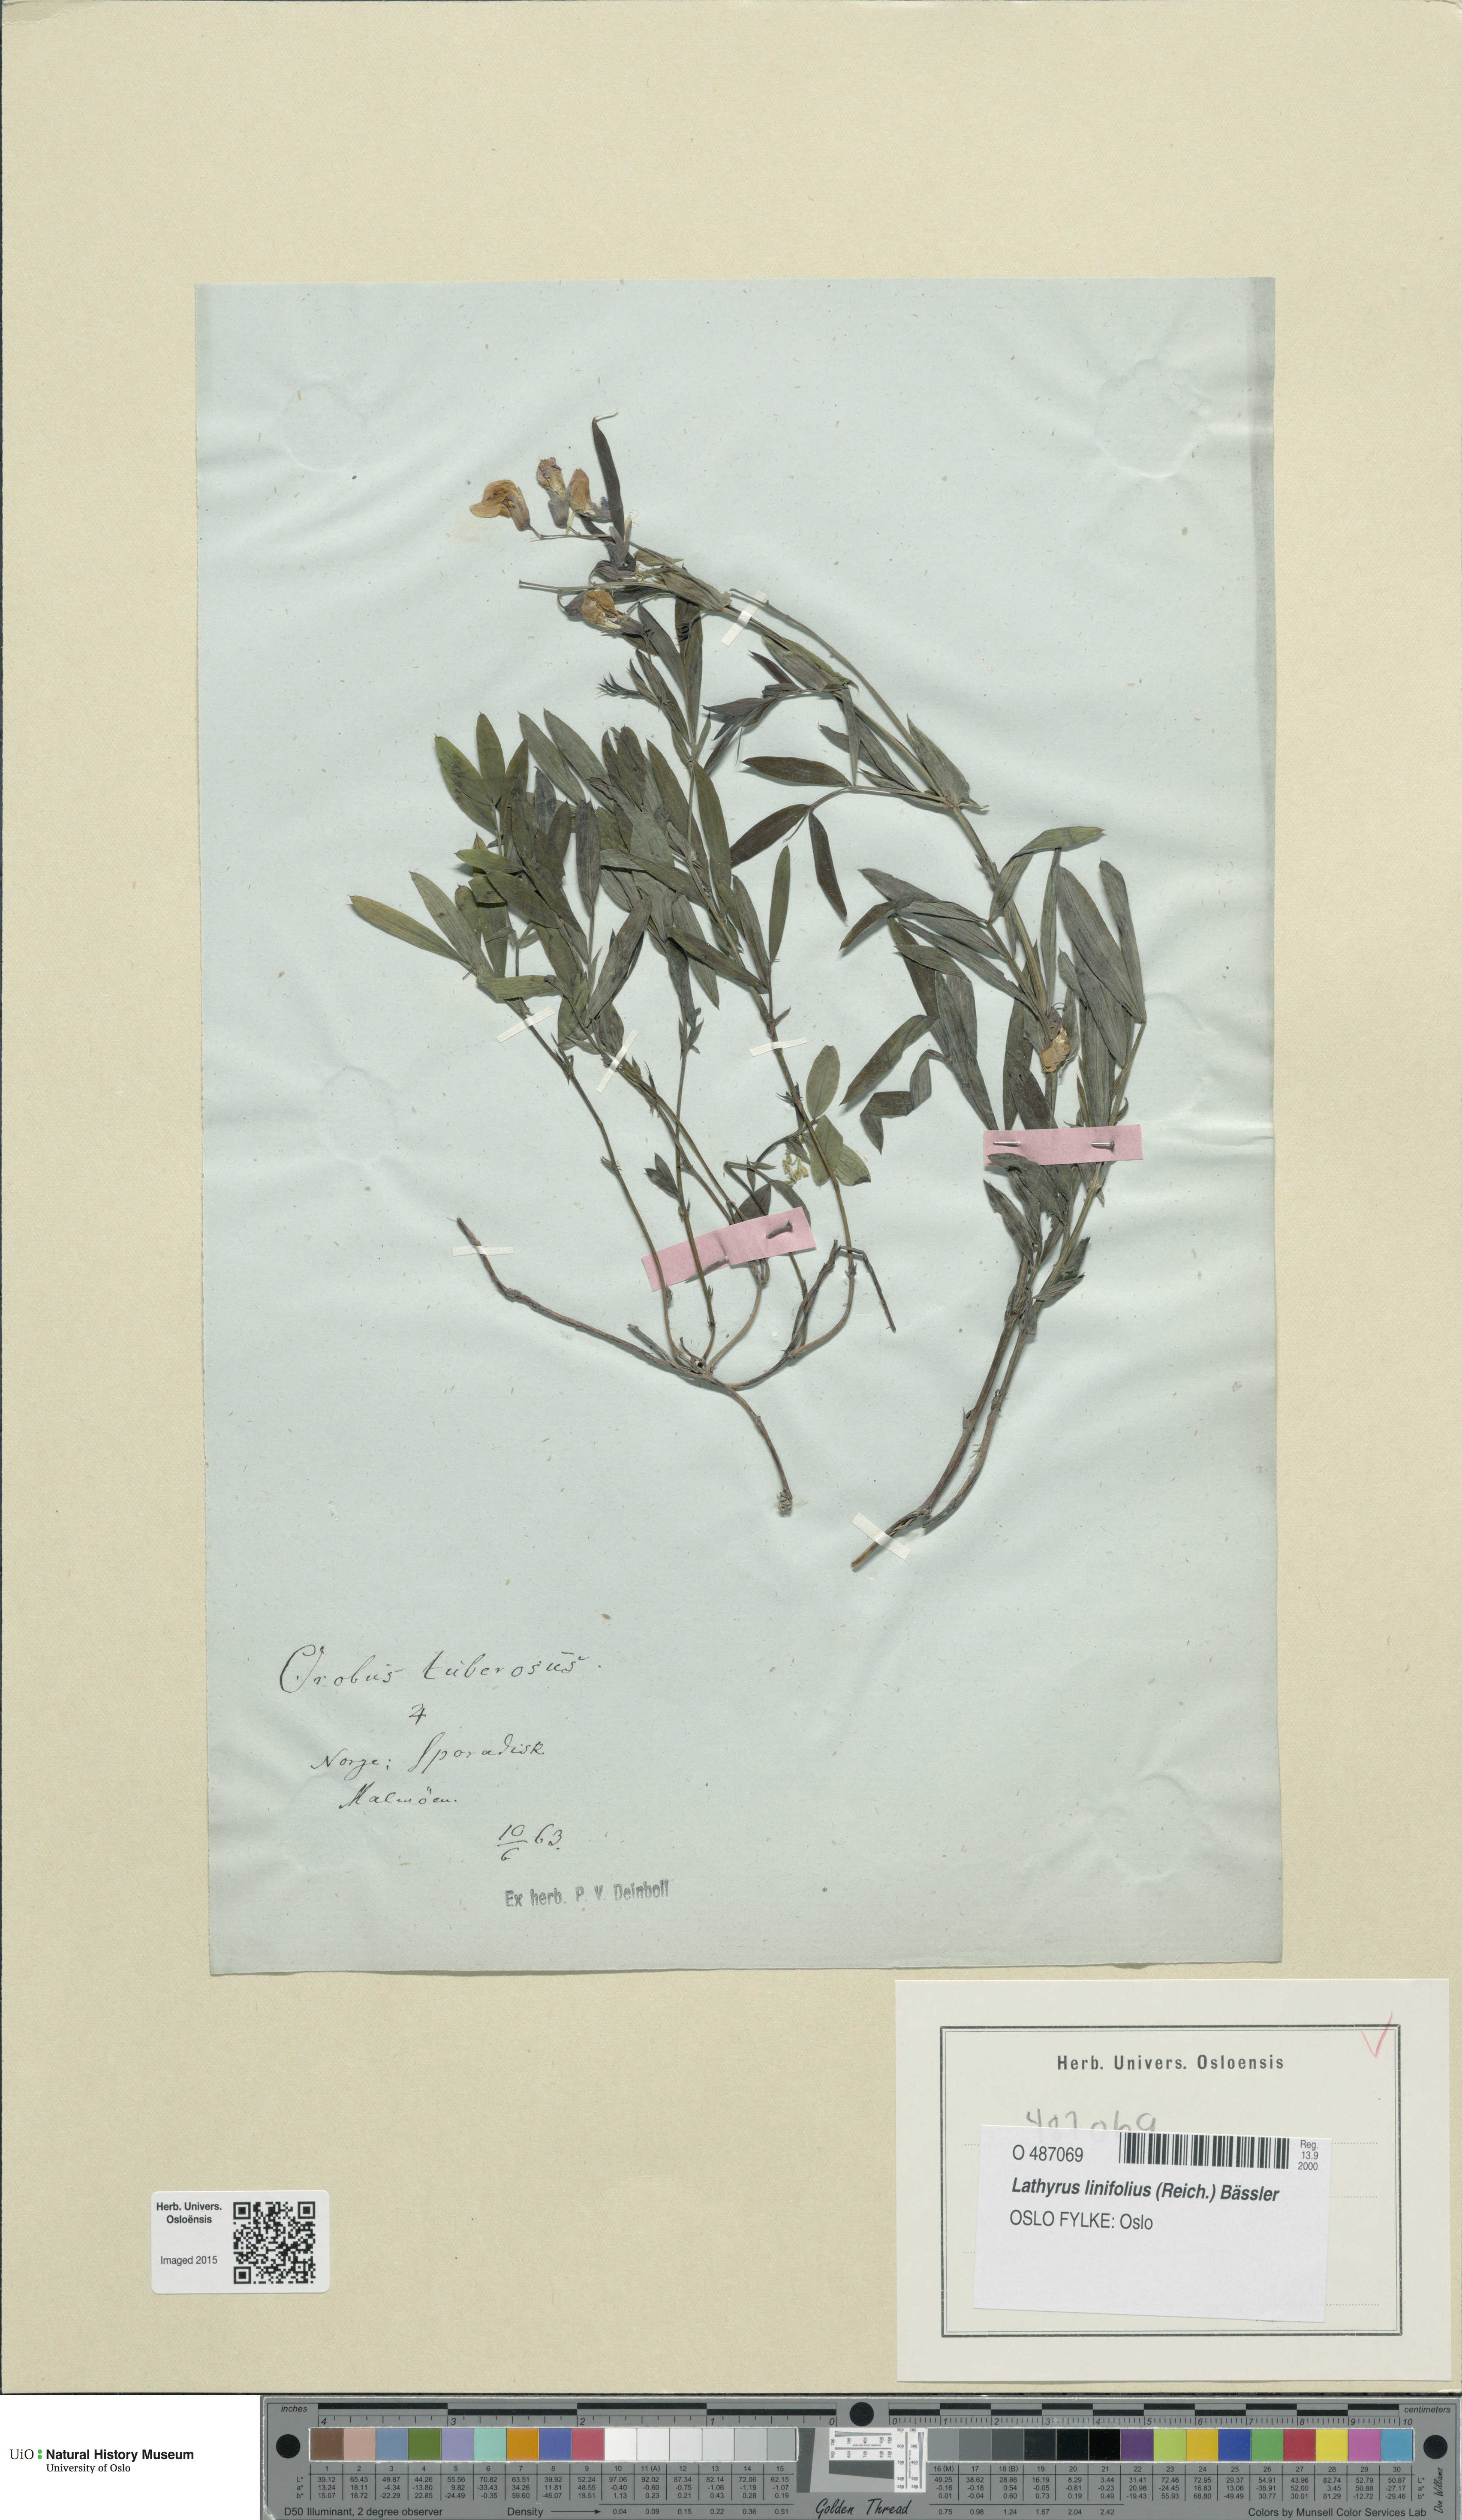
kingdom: Plantae
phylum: Tracheophyta
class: Magnoliopsida
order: Fabales
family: Fabaceae
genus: Lathyrus
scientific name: Lathyrus linifolius
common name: Bitter-vetch
